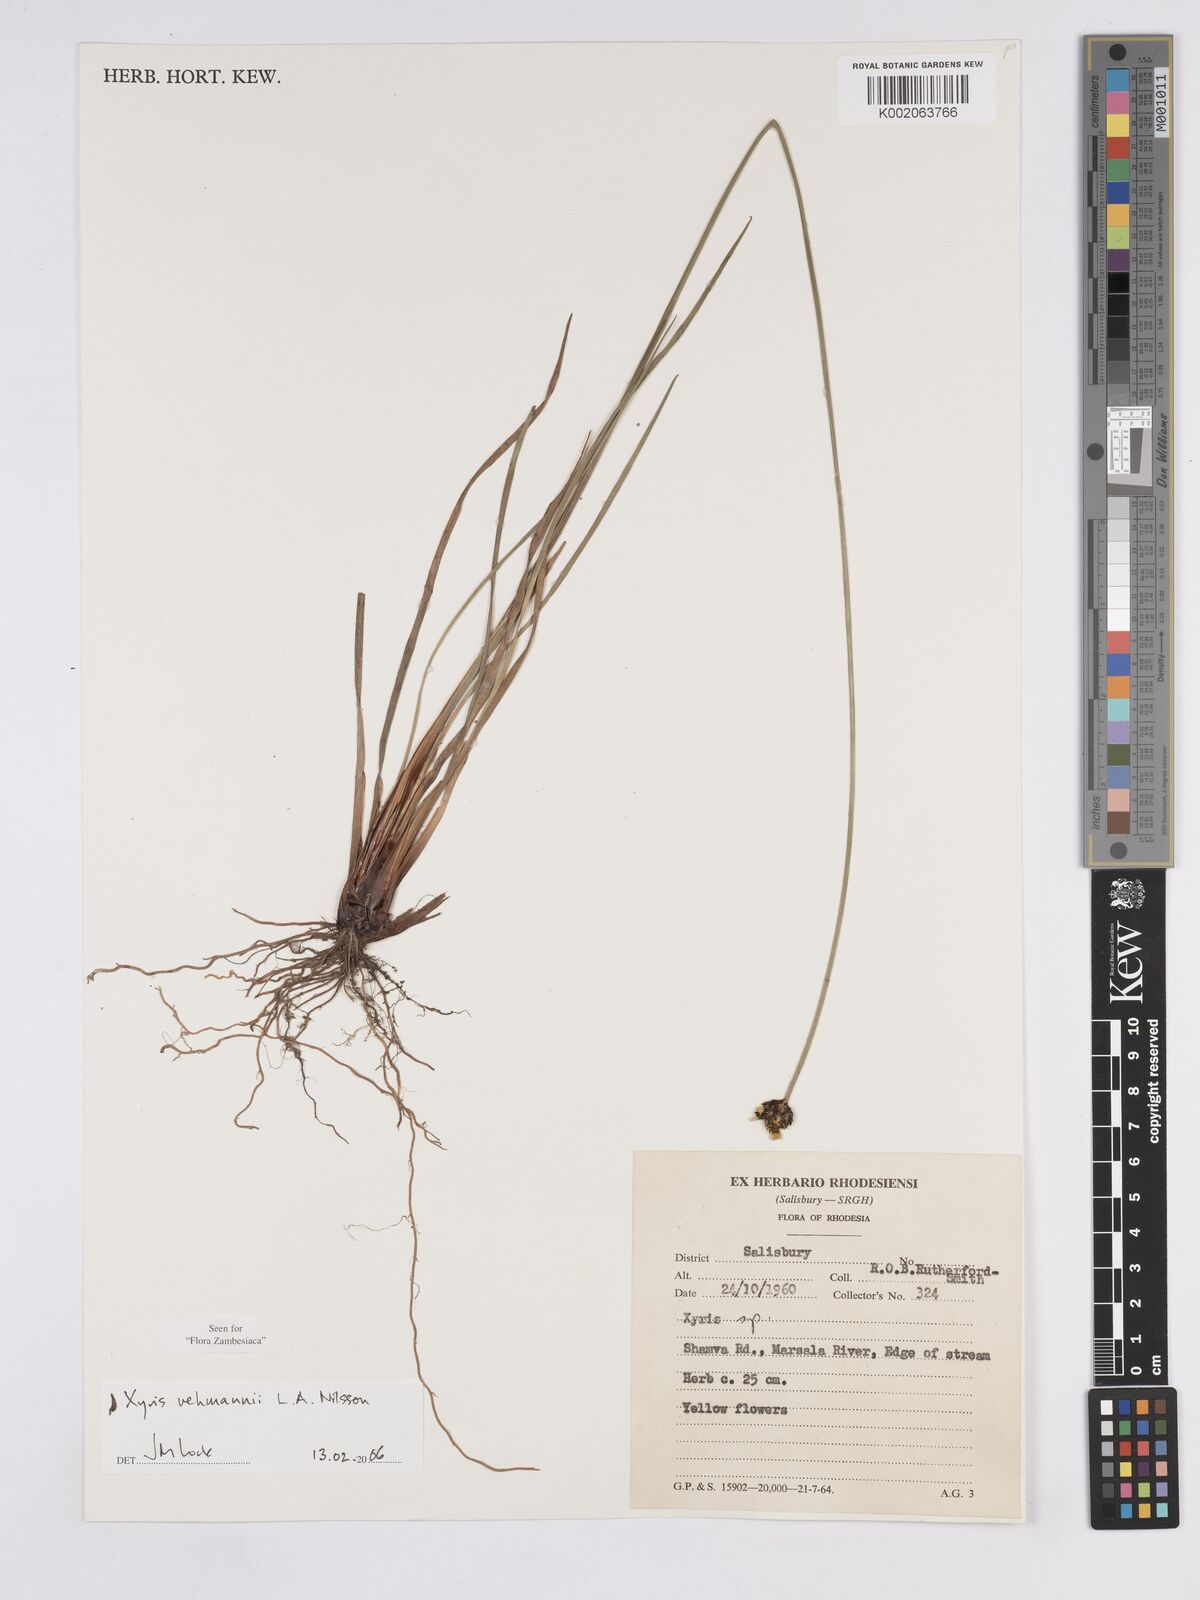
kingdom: Plantae
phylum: Tracheophyta
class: Liliopsida
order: Poales
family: Xyridaceae
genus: Xyris
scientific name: Xyris rehmannii
